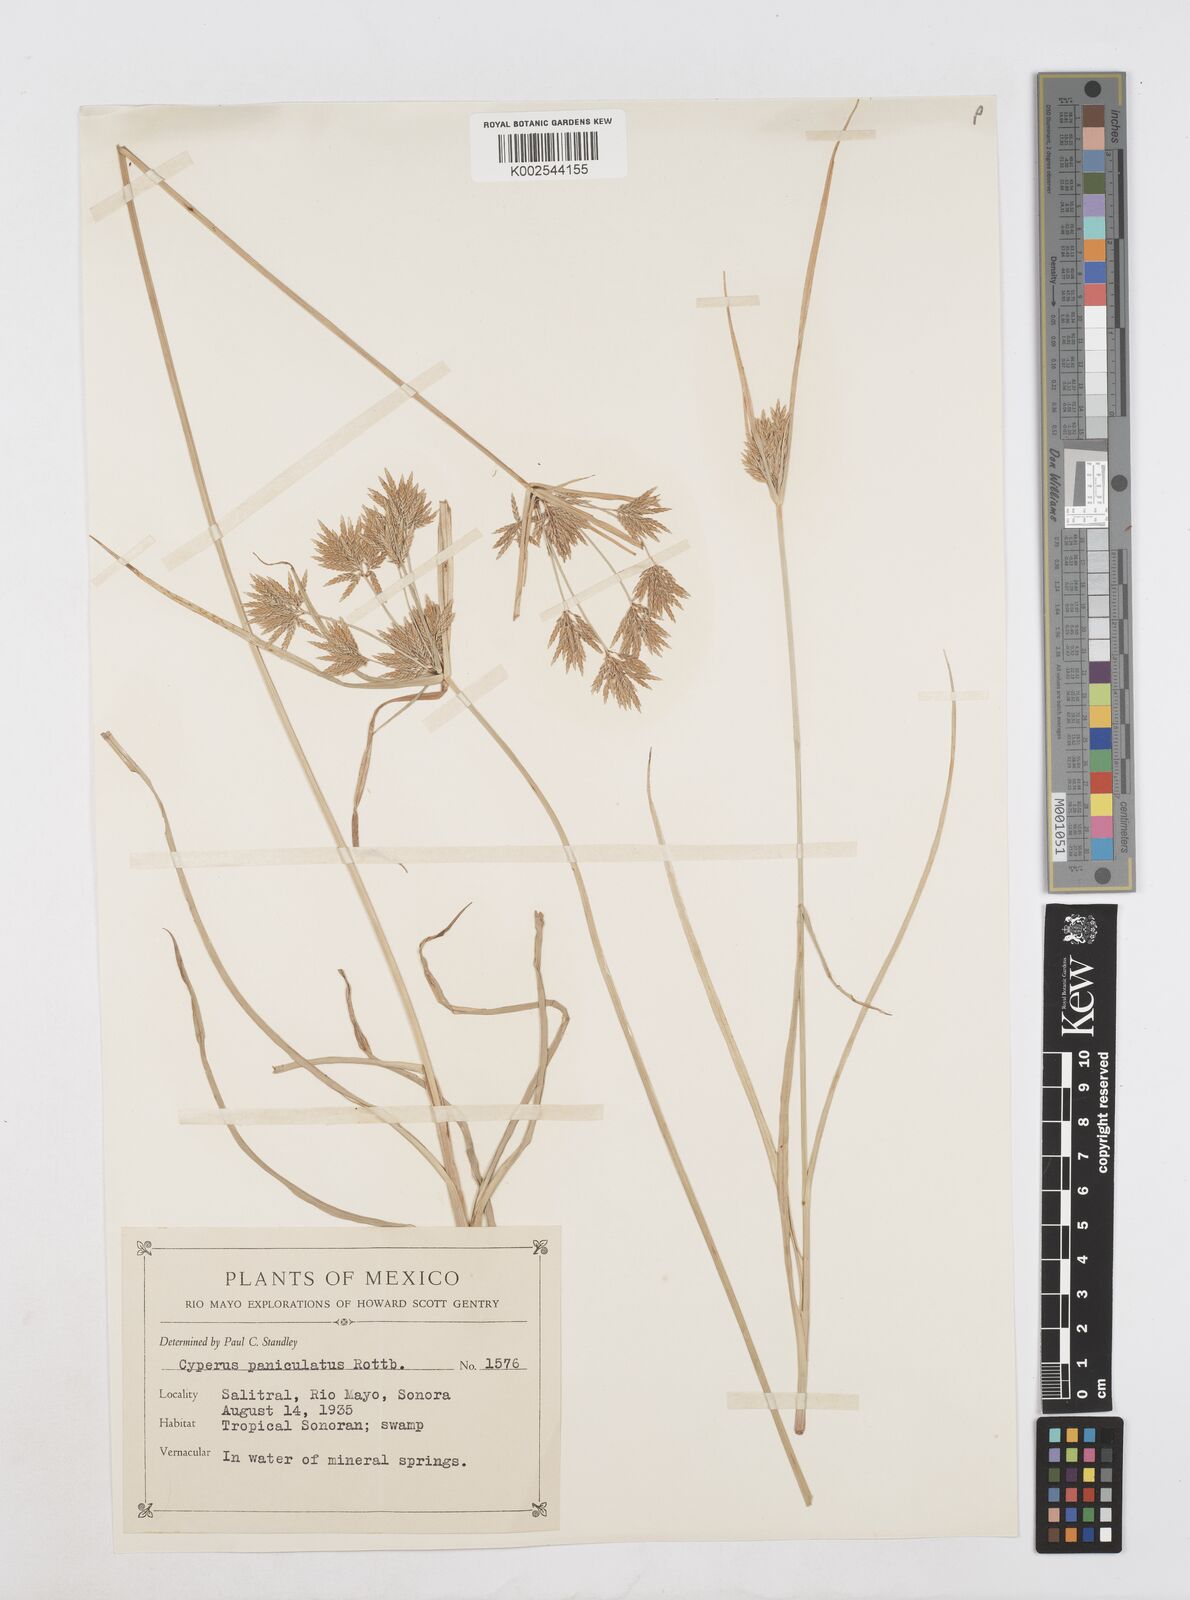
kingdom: Plantae
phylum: Tracheophyta
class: Liliopsida
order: Poales
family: Cyperaceae
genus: Cyperus
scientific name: Cyperus polystachyos
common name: Bunchy flat sedge
